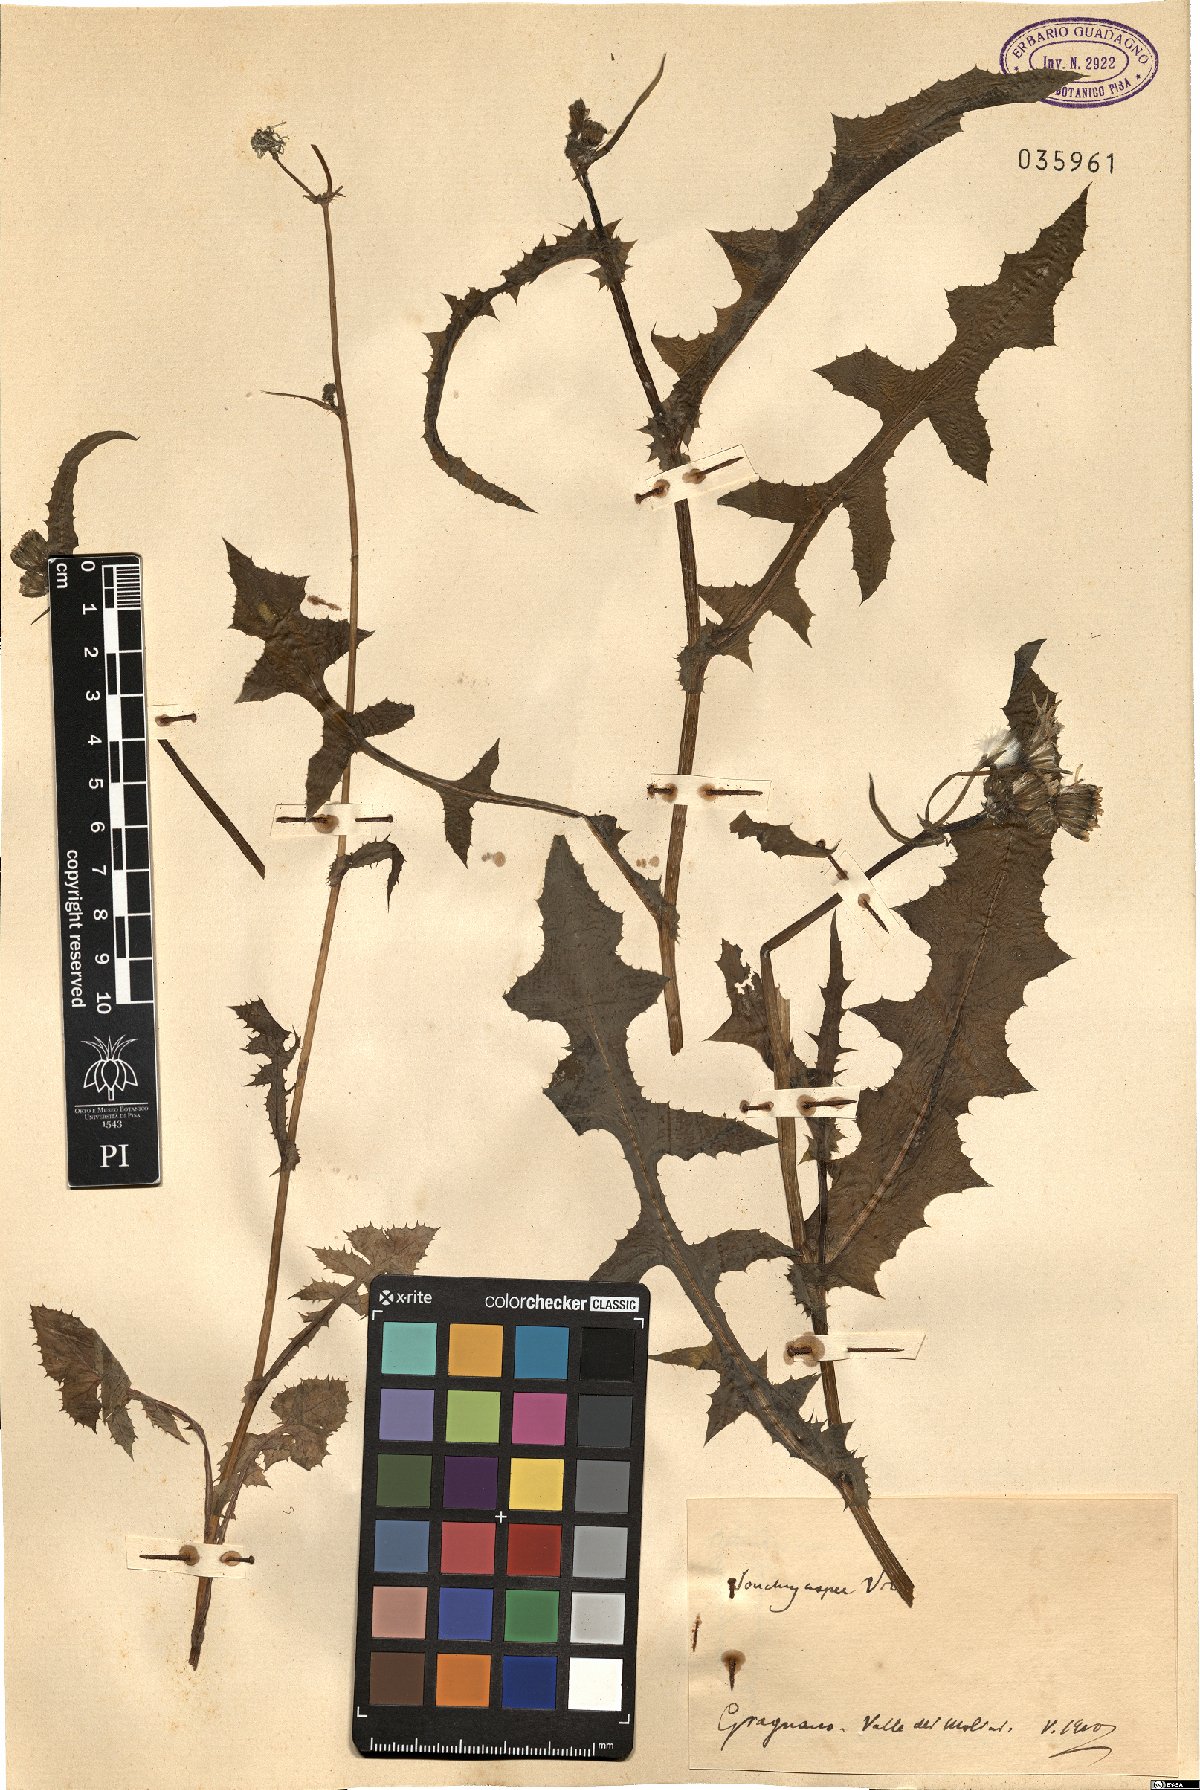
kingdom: Plantae
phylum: Tracheophyta
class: Magnoliopsida
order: Asterales
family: Asteraceae
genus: Sonchus
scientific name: Sonchus asper
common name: Prickly sow-thistle
